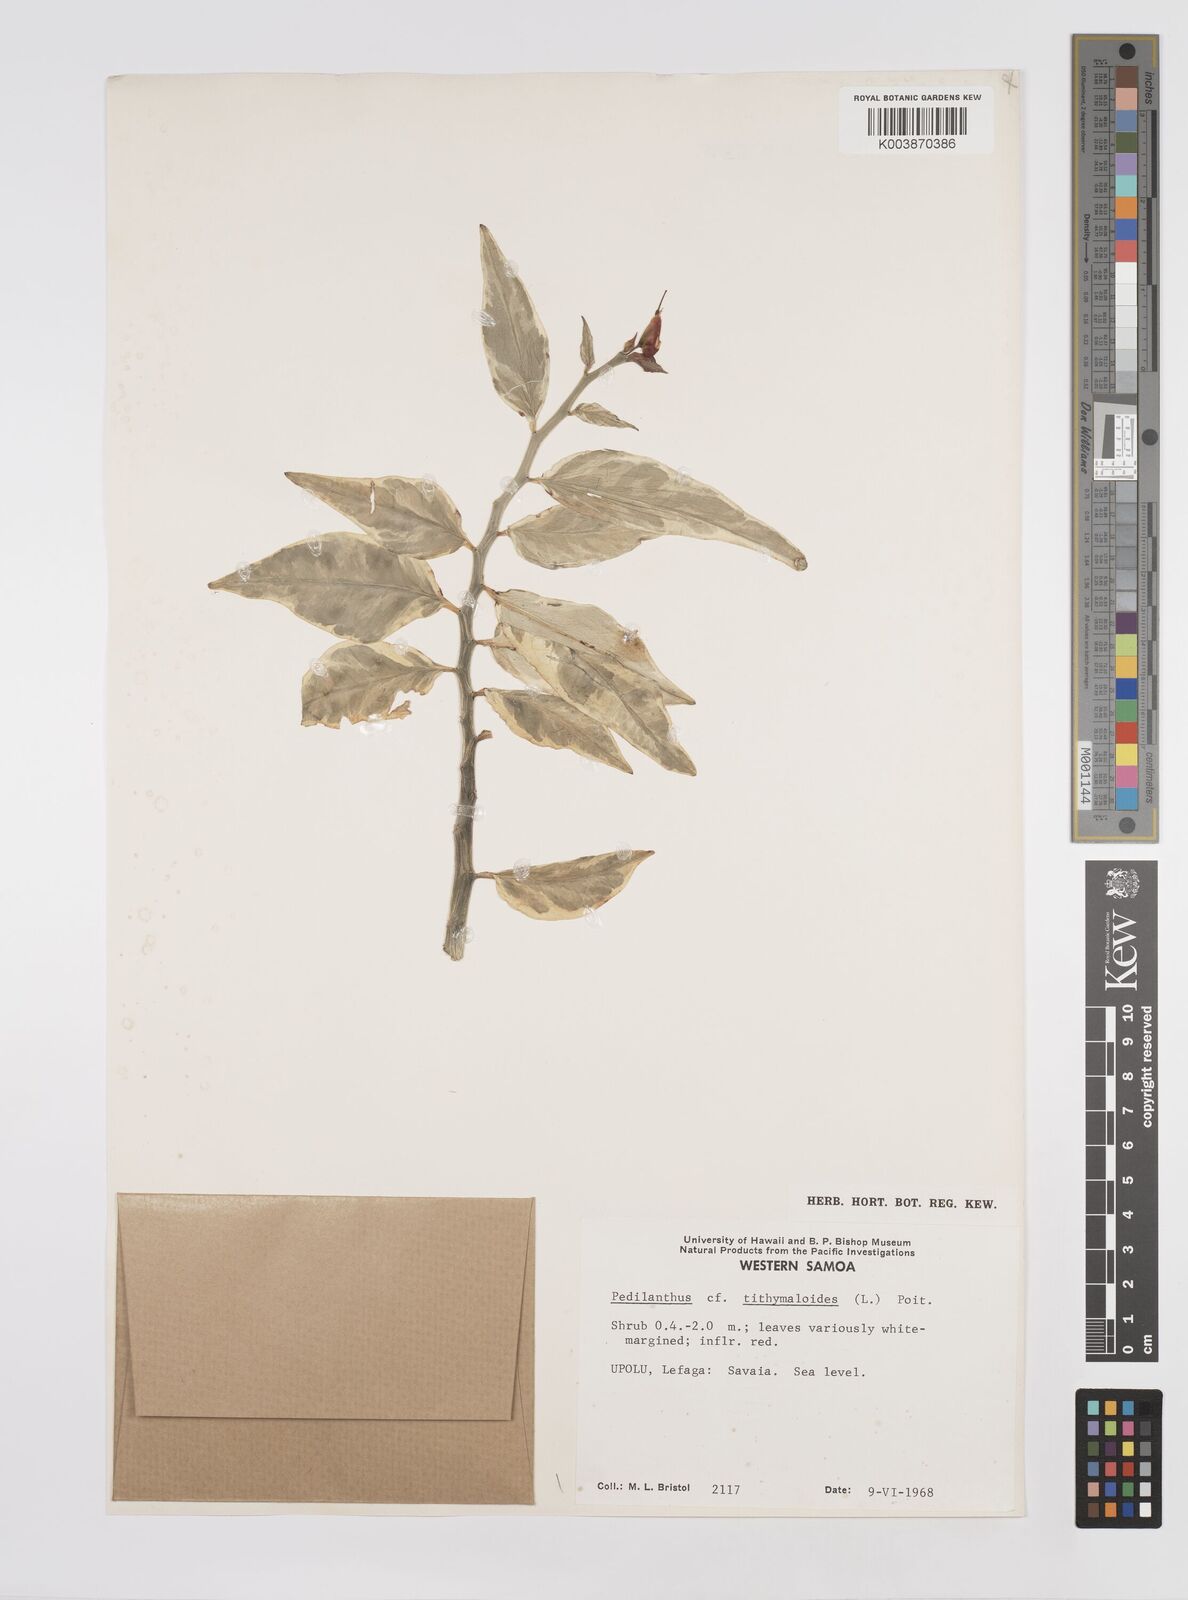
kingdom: Plantae
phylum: Tracheophyta
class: Magnoliopsida
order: Malpighiales
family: Euphorbiaceae
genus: Euphorbia
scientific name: Euphorbia tithymaloides
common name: Slipperplant
